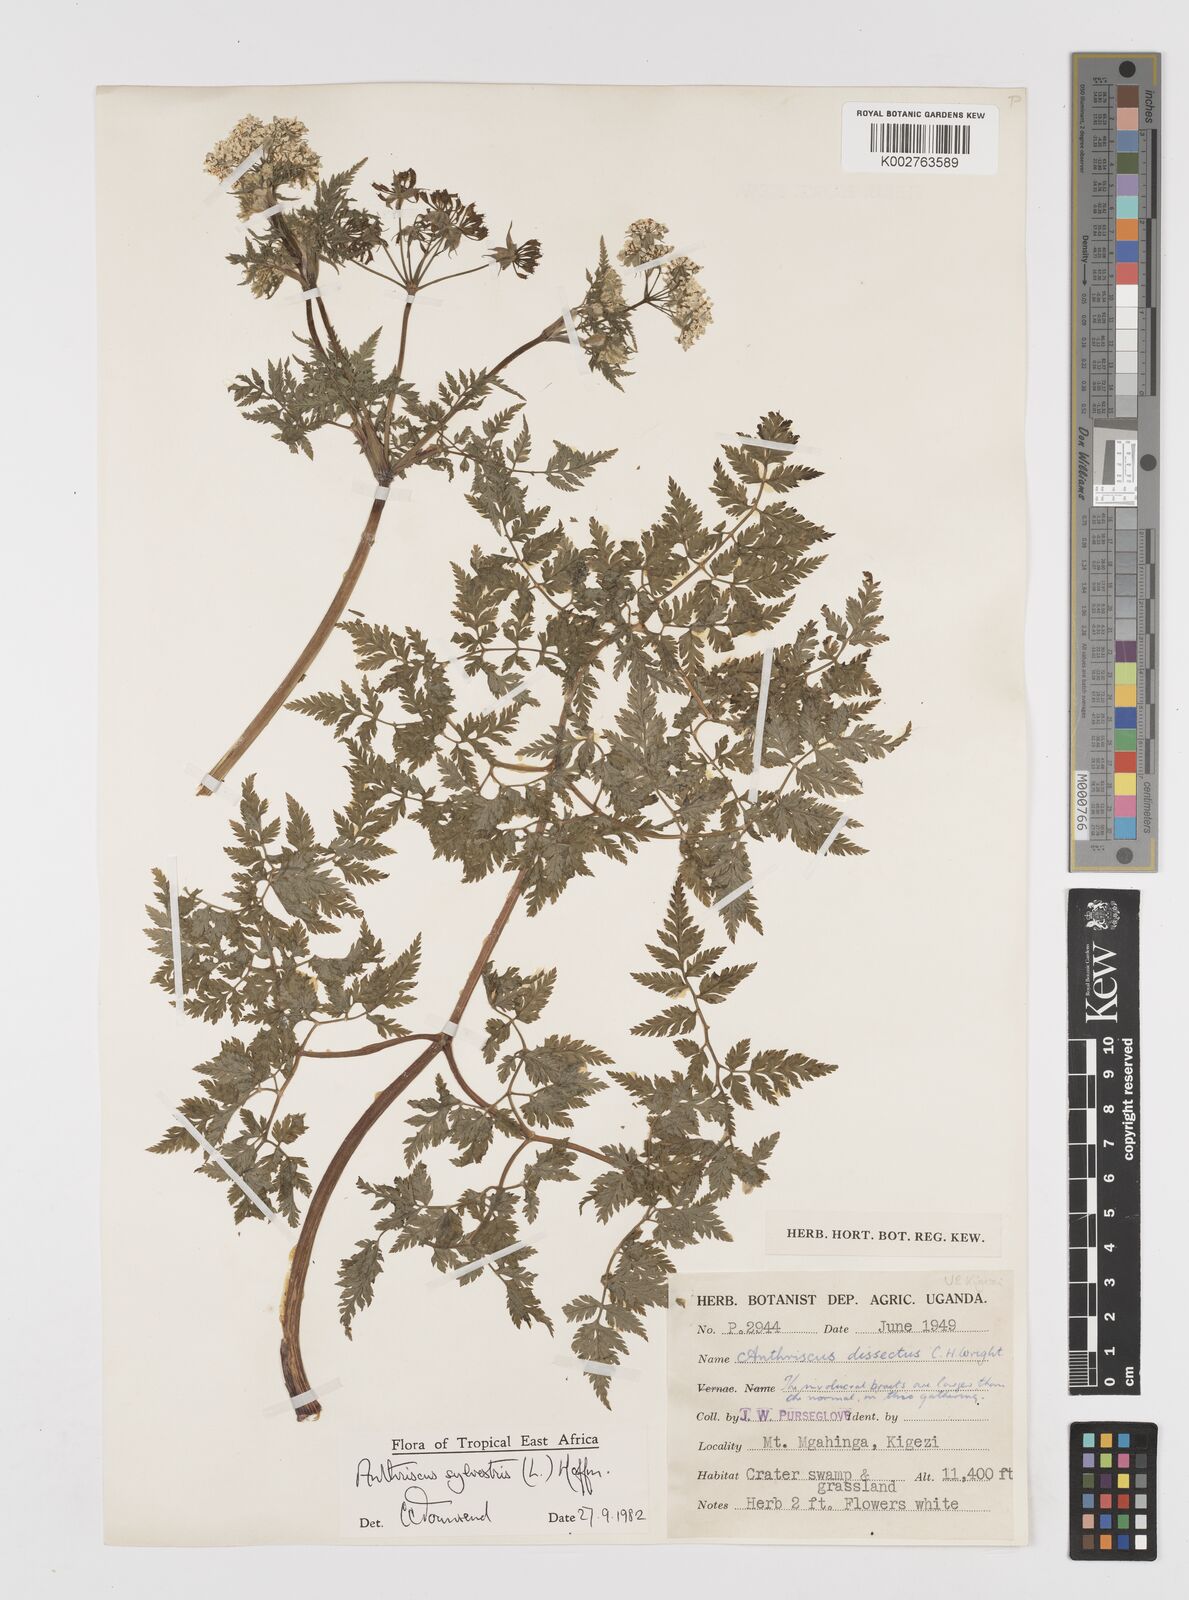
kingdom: Plantae
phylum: Tracheophyta
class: Magnoliopsida
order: Apiales
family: Apiaceae
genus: Anthriscus
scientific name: Anthriscus sylvestris
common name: Cow parsley
